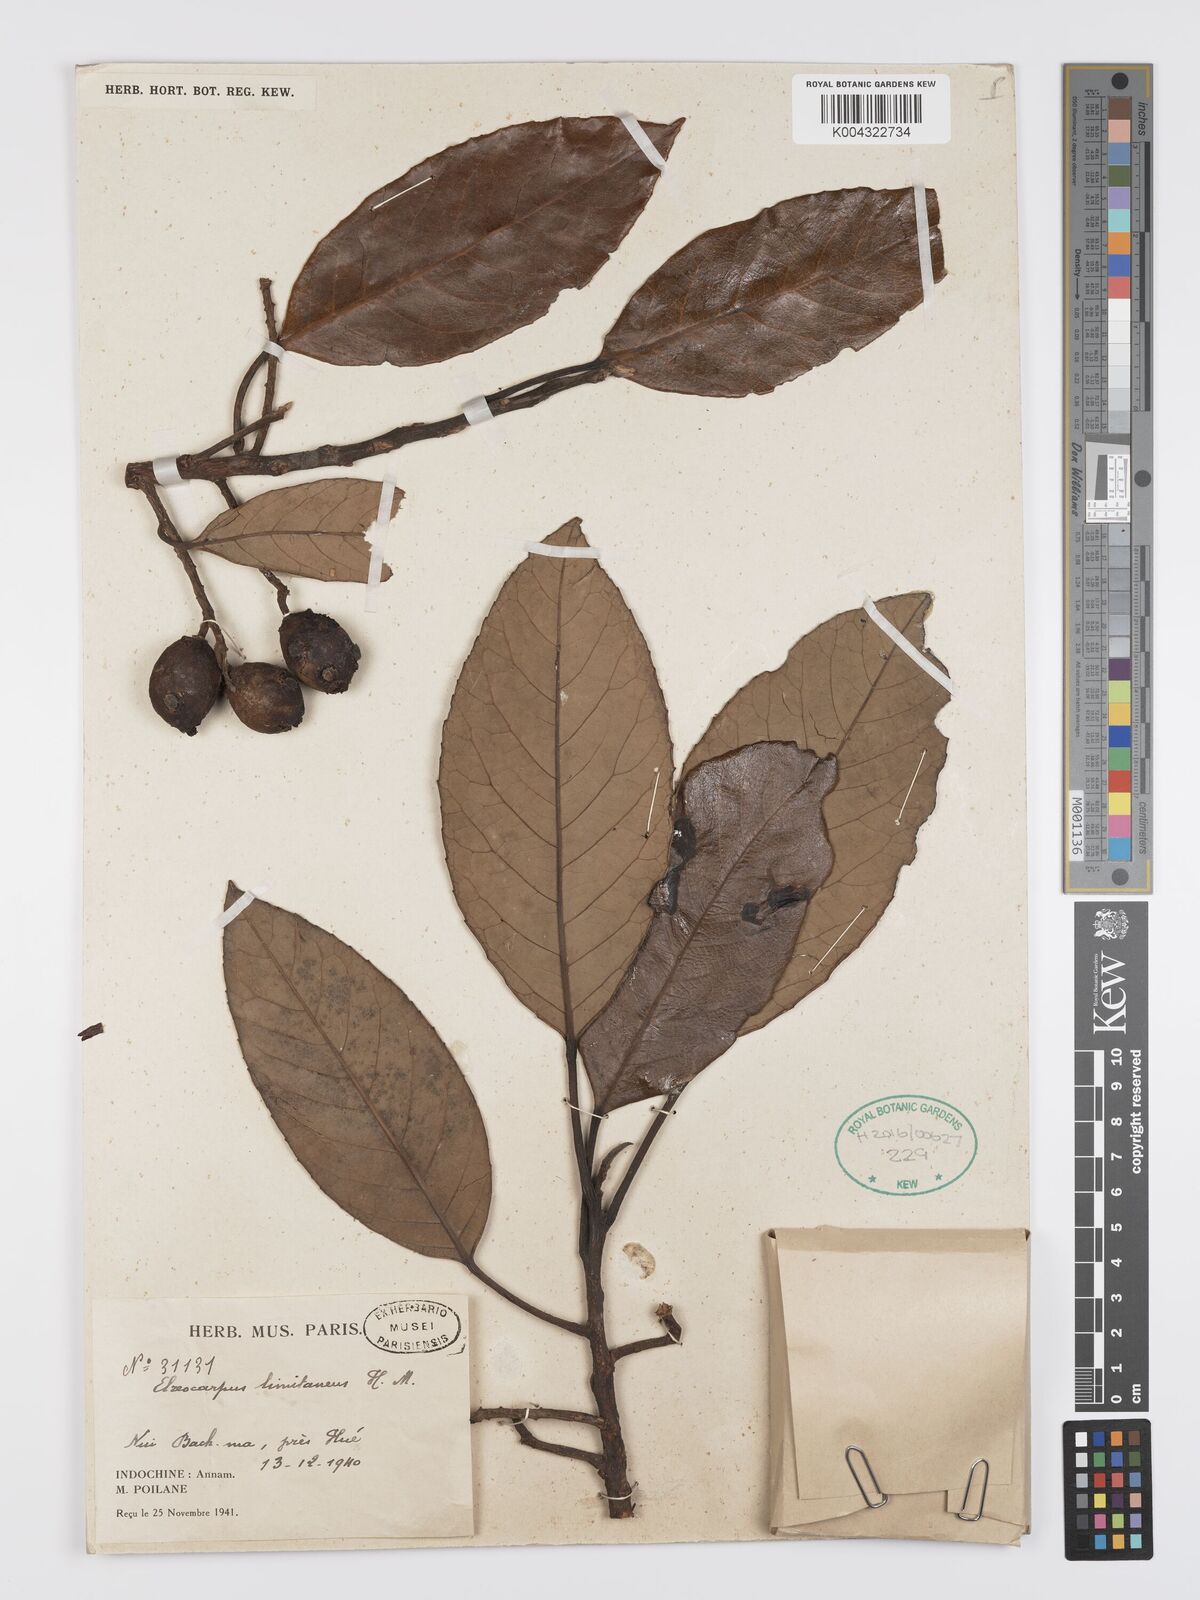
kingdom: Plantae
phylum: Tracheophyta
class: Magnoliopsida
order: Oxalidales
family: Elaeocarpaceae
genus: Elaeocarpus
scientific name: Elaeocarpus limitaneus
